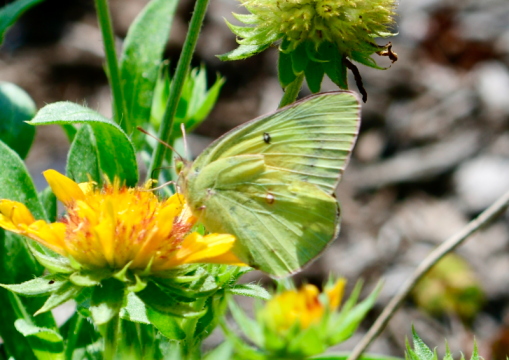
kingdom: Animalia
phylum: Arthropoda
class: Insecta
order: Lepidoptera
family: Pieridae
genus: Colias
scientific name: Colias eurytheme
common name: Orange Sulphur
